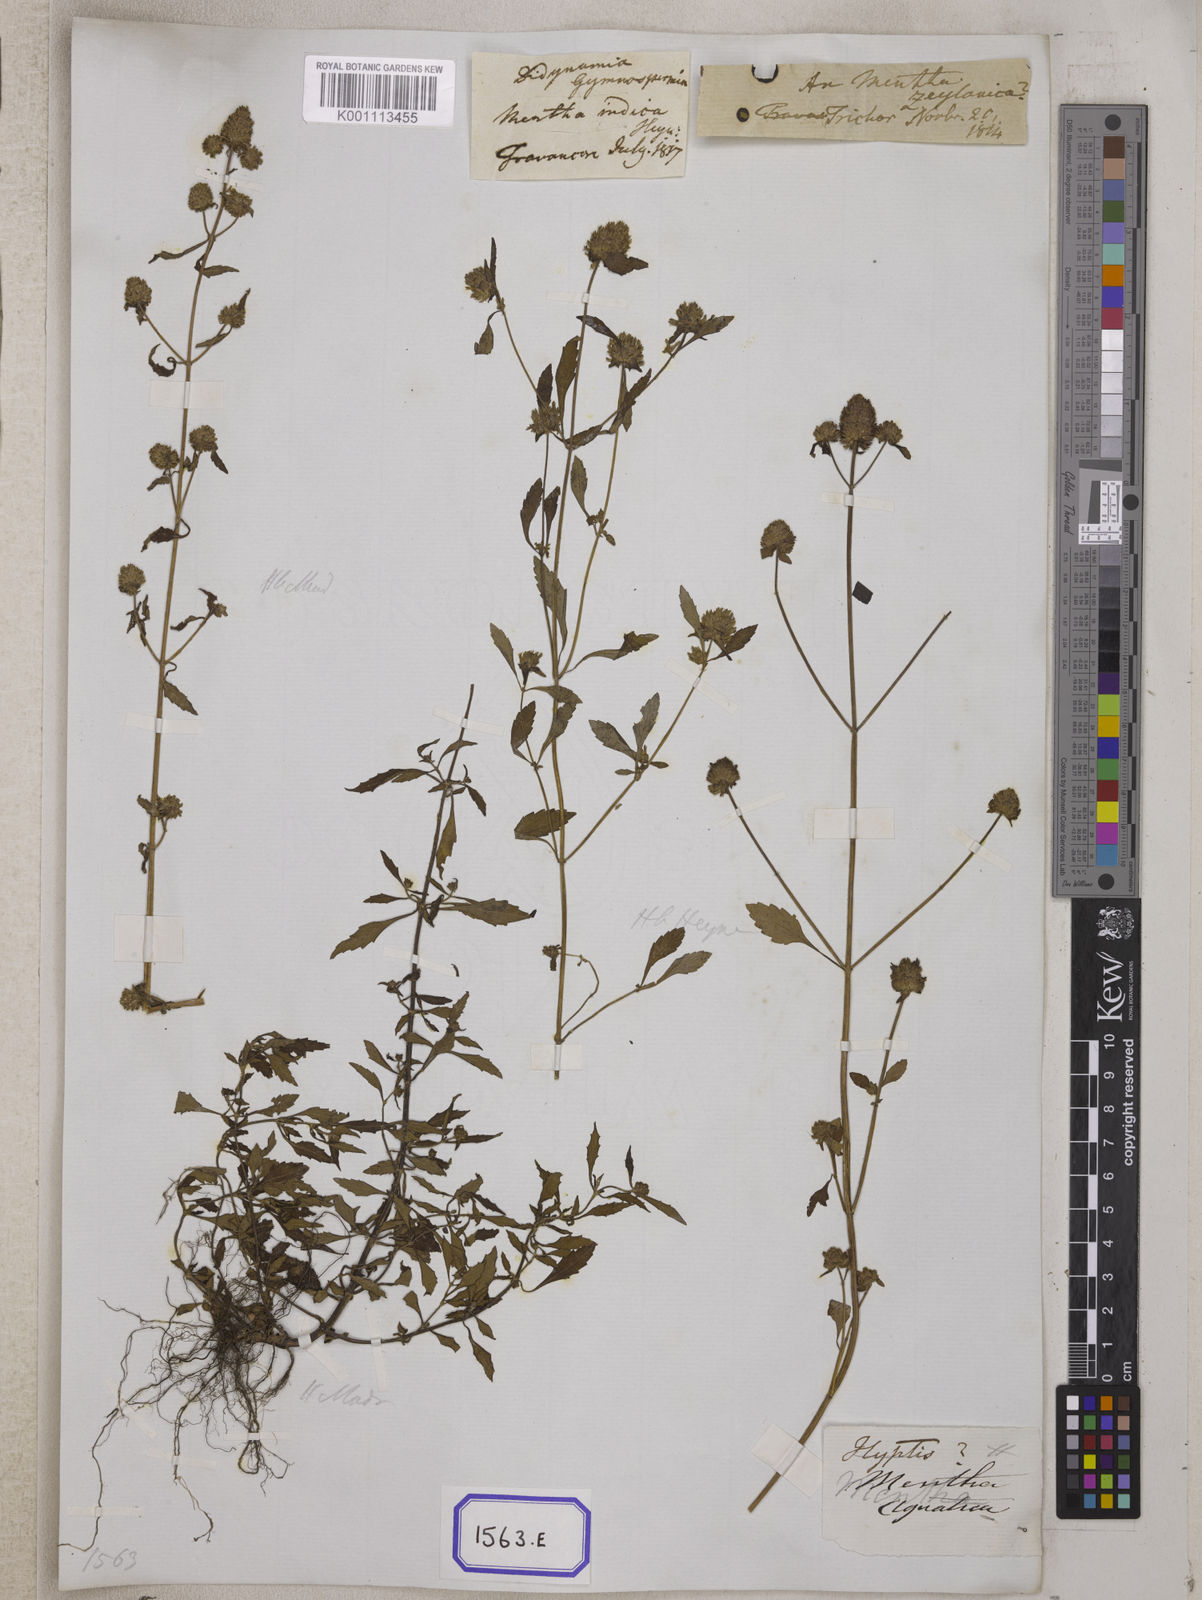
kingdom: Plantae
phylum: Tracheophyta
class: Magnoliopsida
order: Lamiales
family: Lamiaceae
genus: Platostoma
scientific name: Platostoma hispidum
